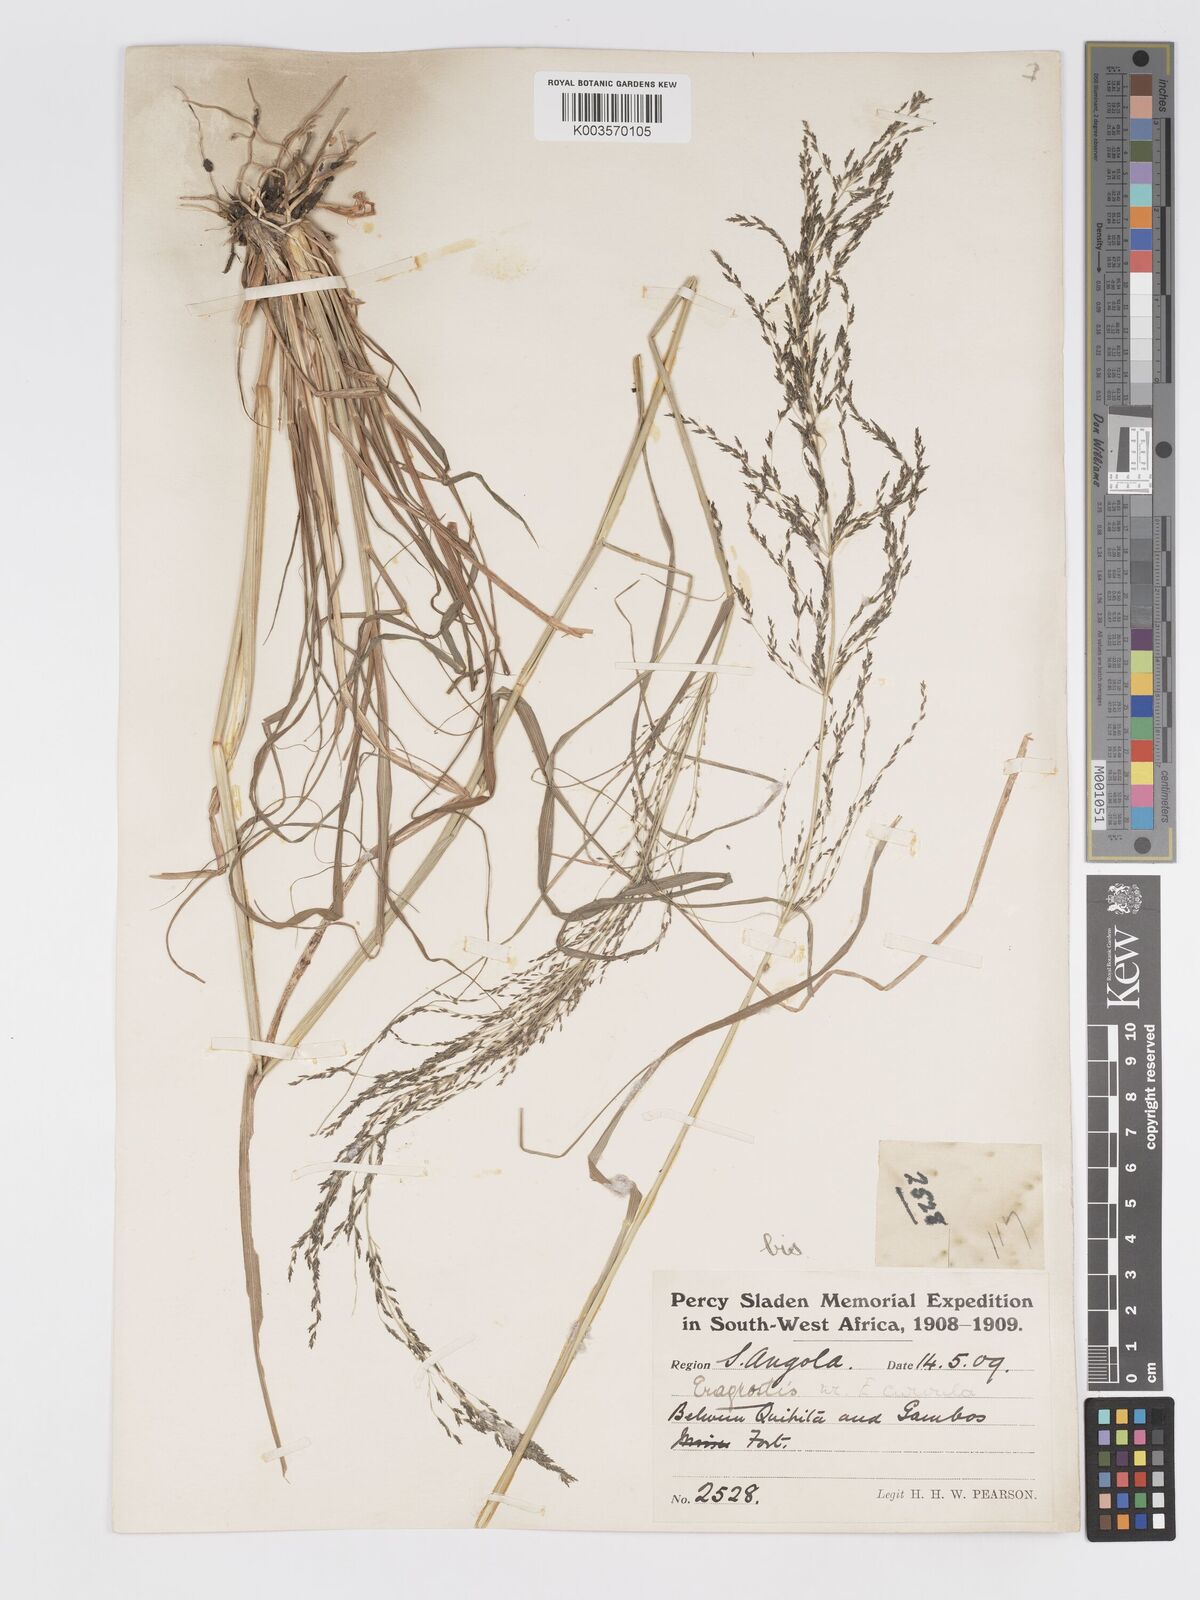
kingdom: Plantae
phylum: Tracheophyta
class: Liliopsida
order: Poales
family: Poaceae
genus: Eragrostis
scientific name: Eragrostis rotifer
